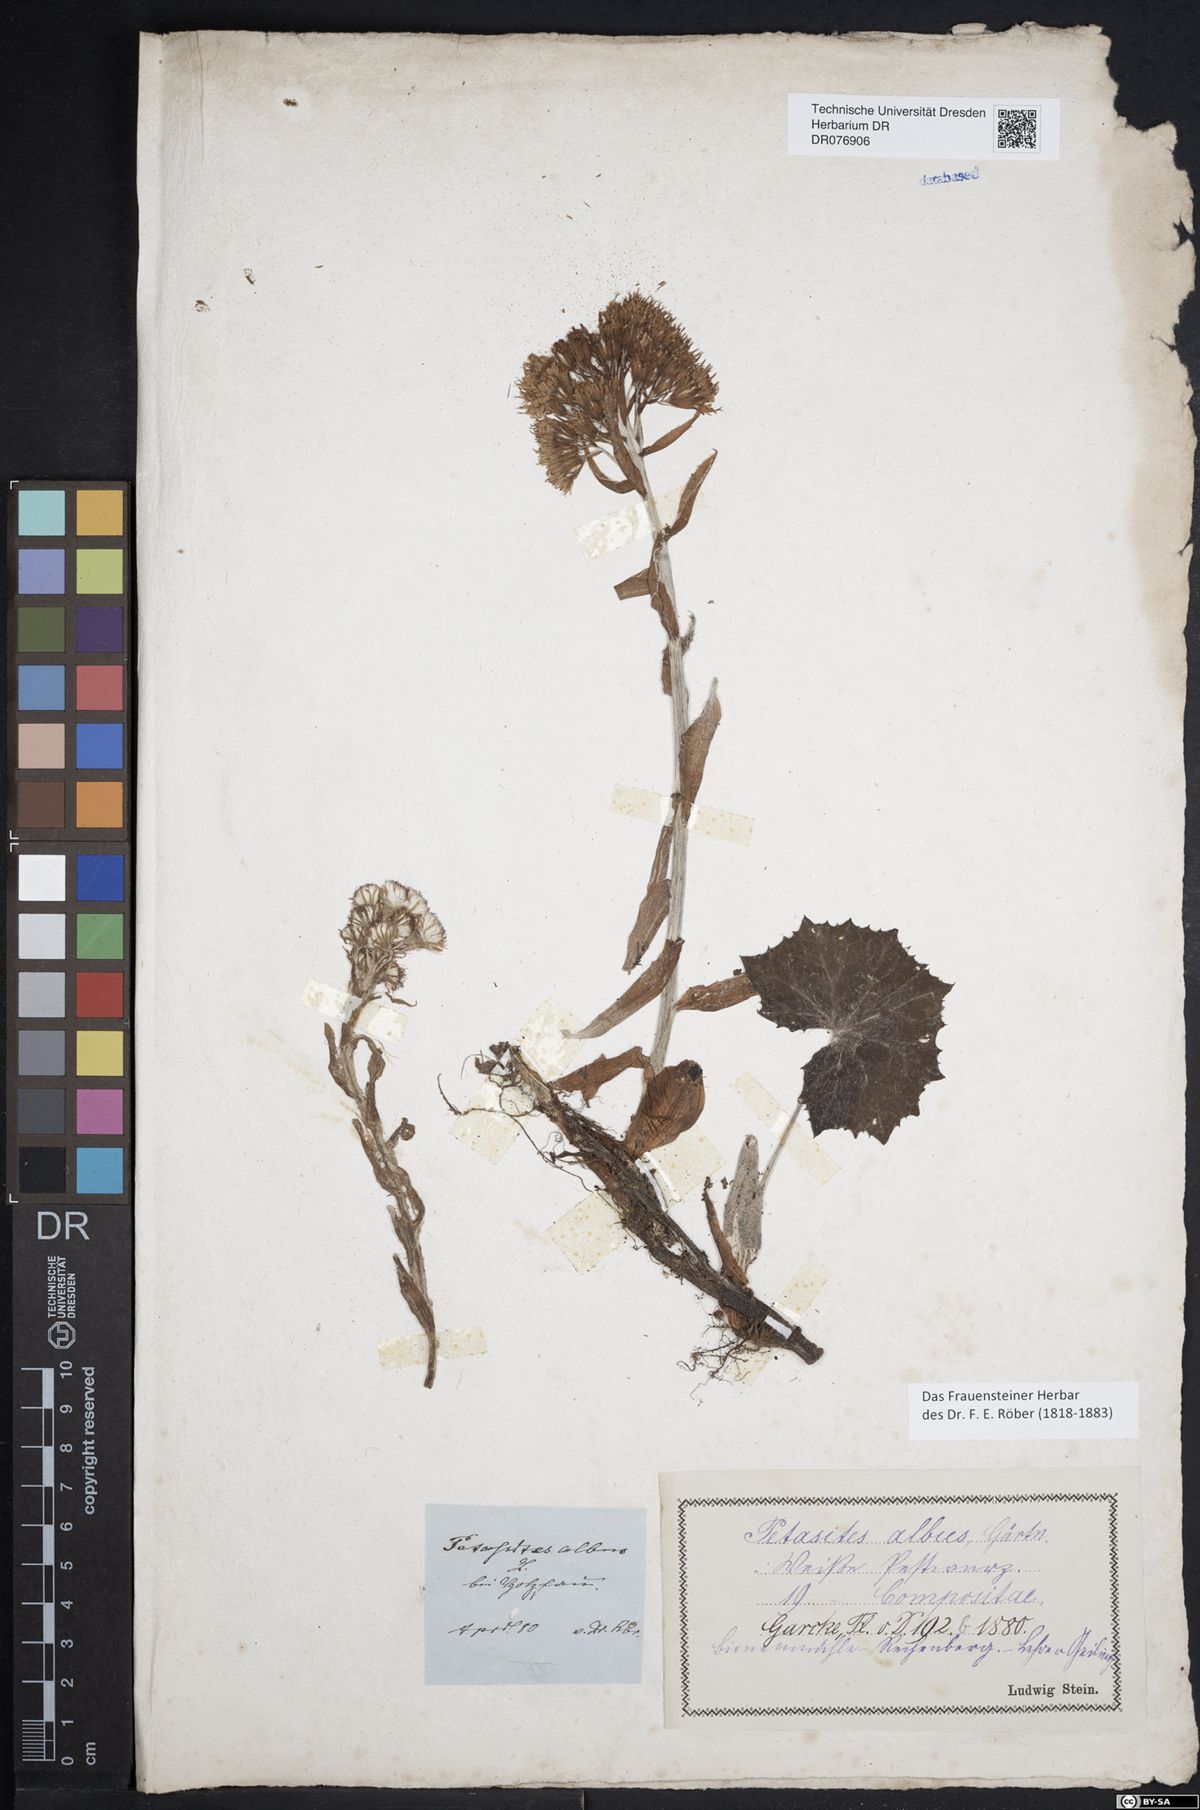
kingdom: Plantae
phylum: Tracheophyta
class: Magnoliopsida
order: Asterales
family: Asteraceae
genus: Petasites
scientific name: Petasites albus
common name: White butterbur
